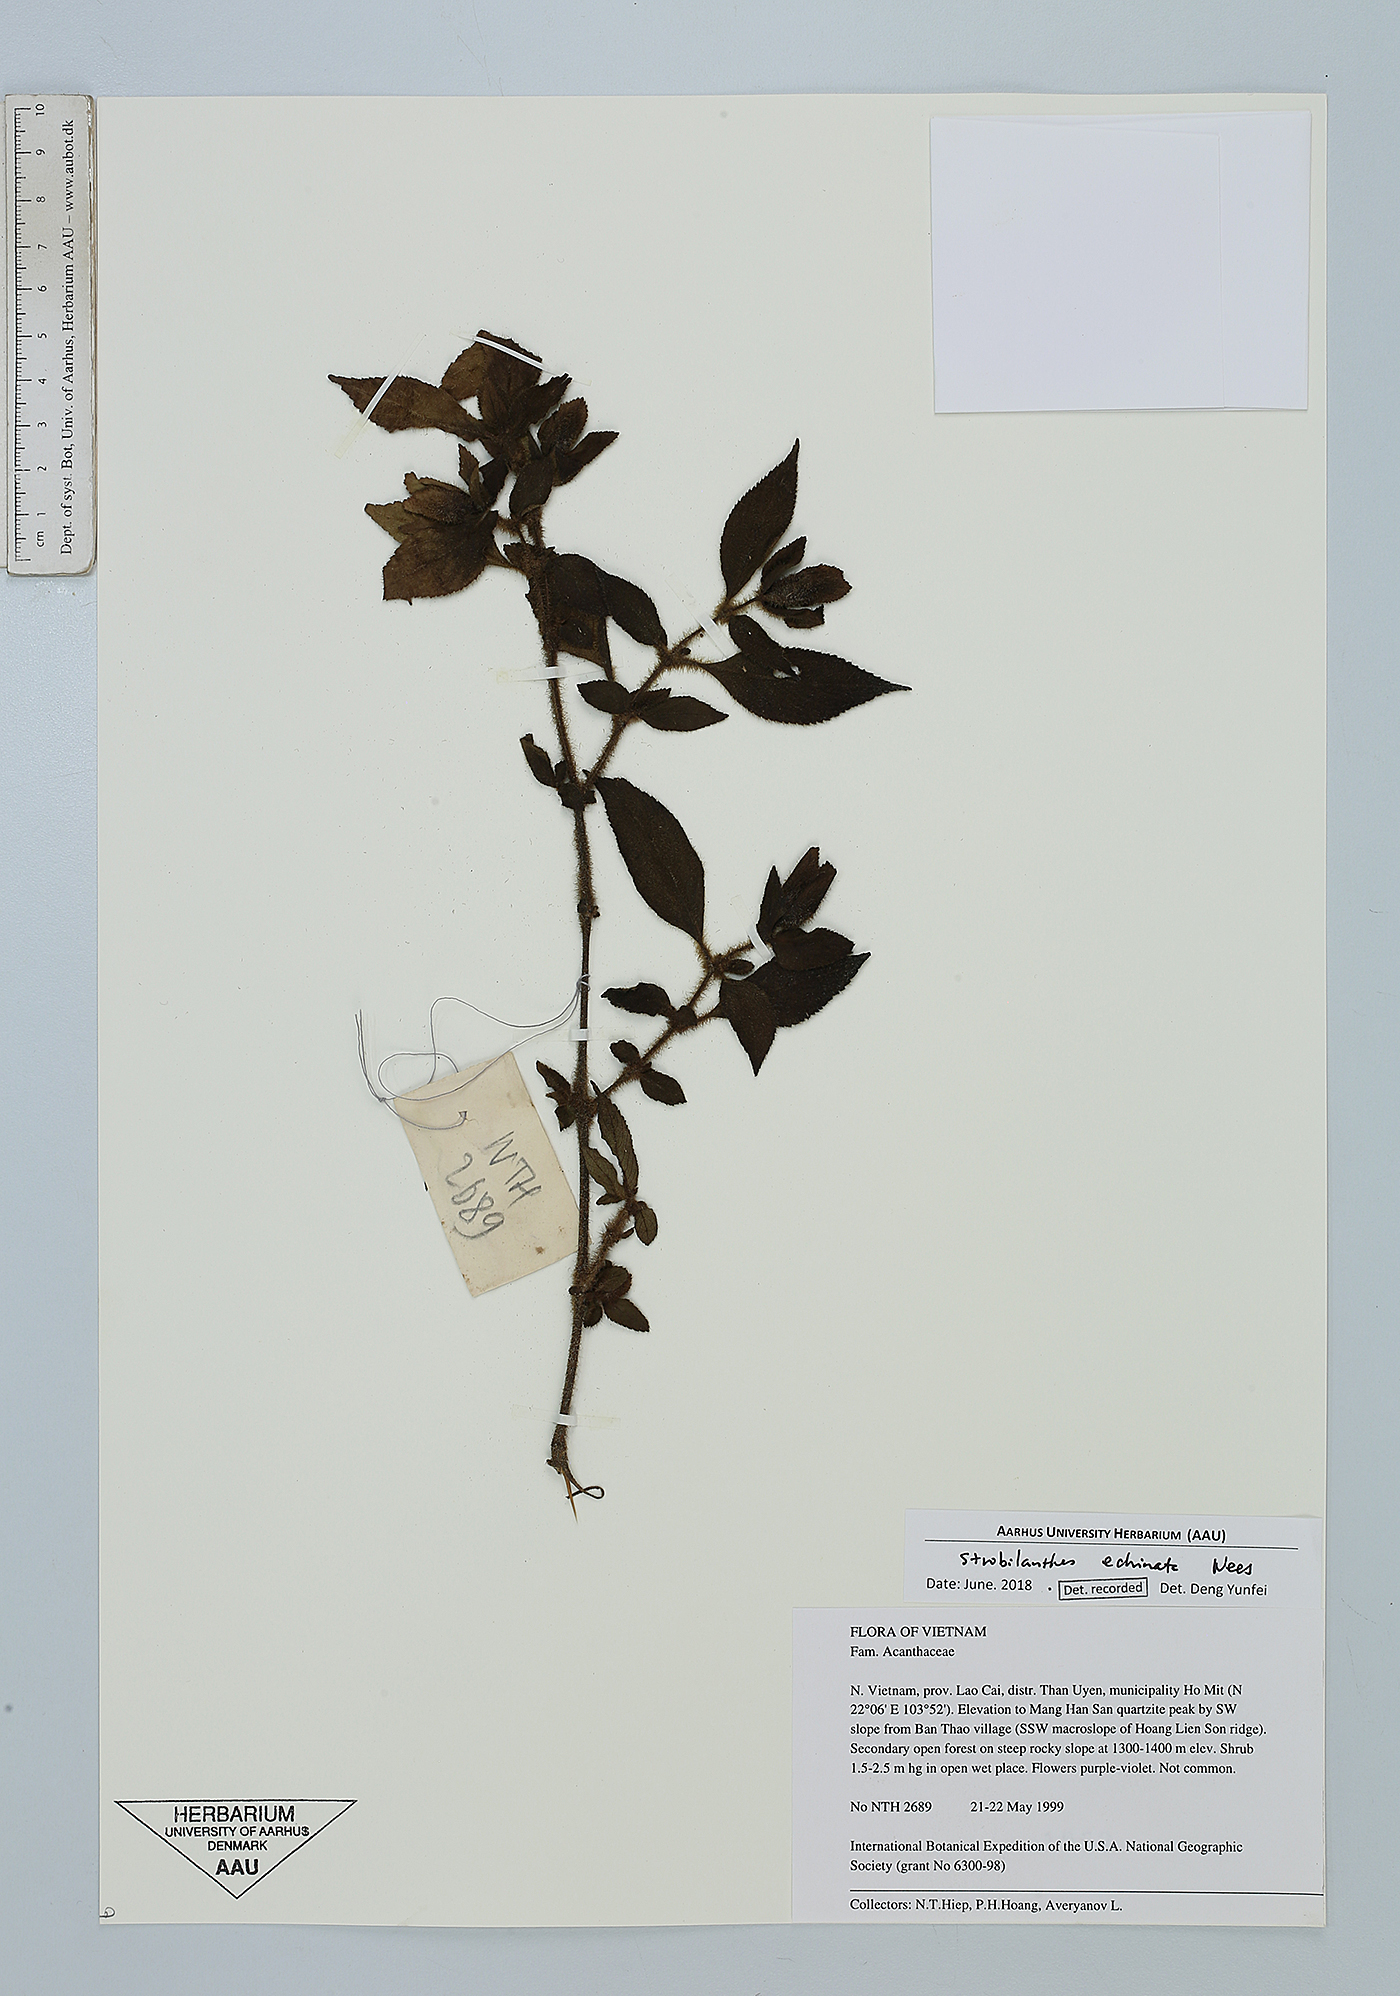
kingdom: Plantae
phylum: Tracheophyta
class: Magnoliopsida
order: Lamiales
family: Acanthaceae
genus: Strobilanthes
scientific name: Strobilanthes echinata
